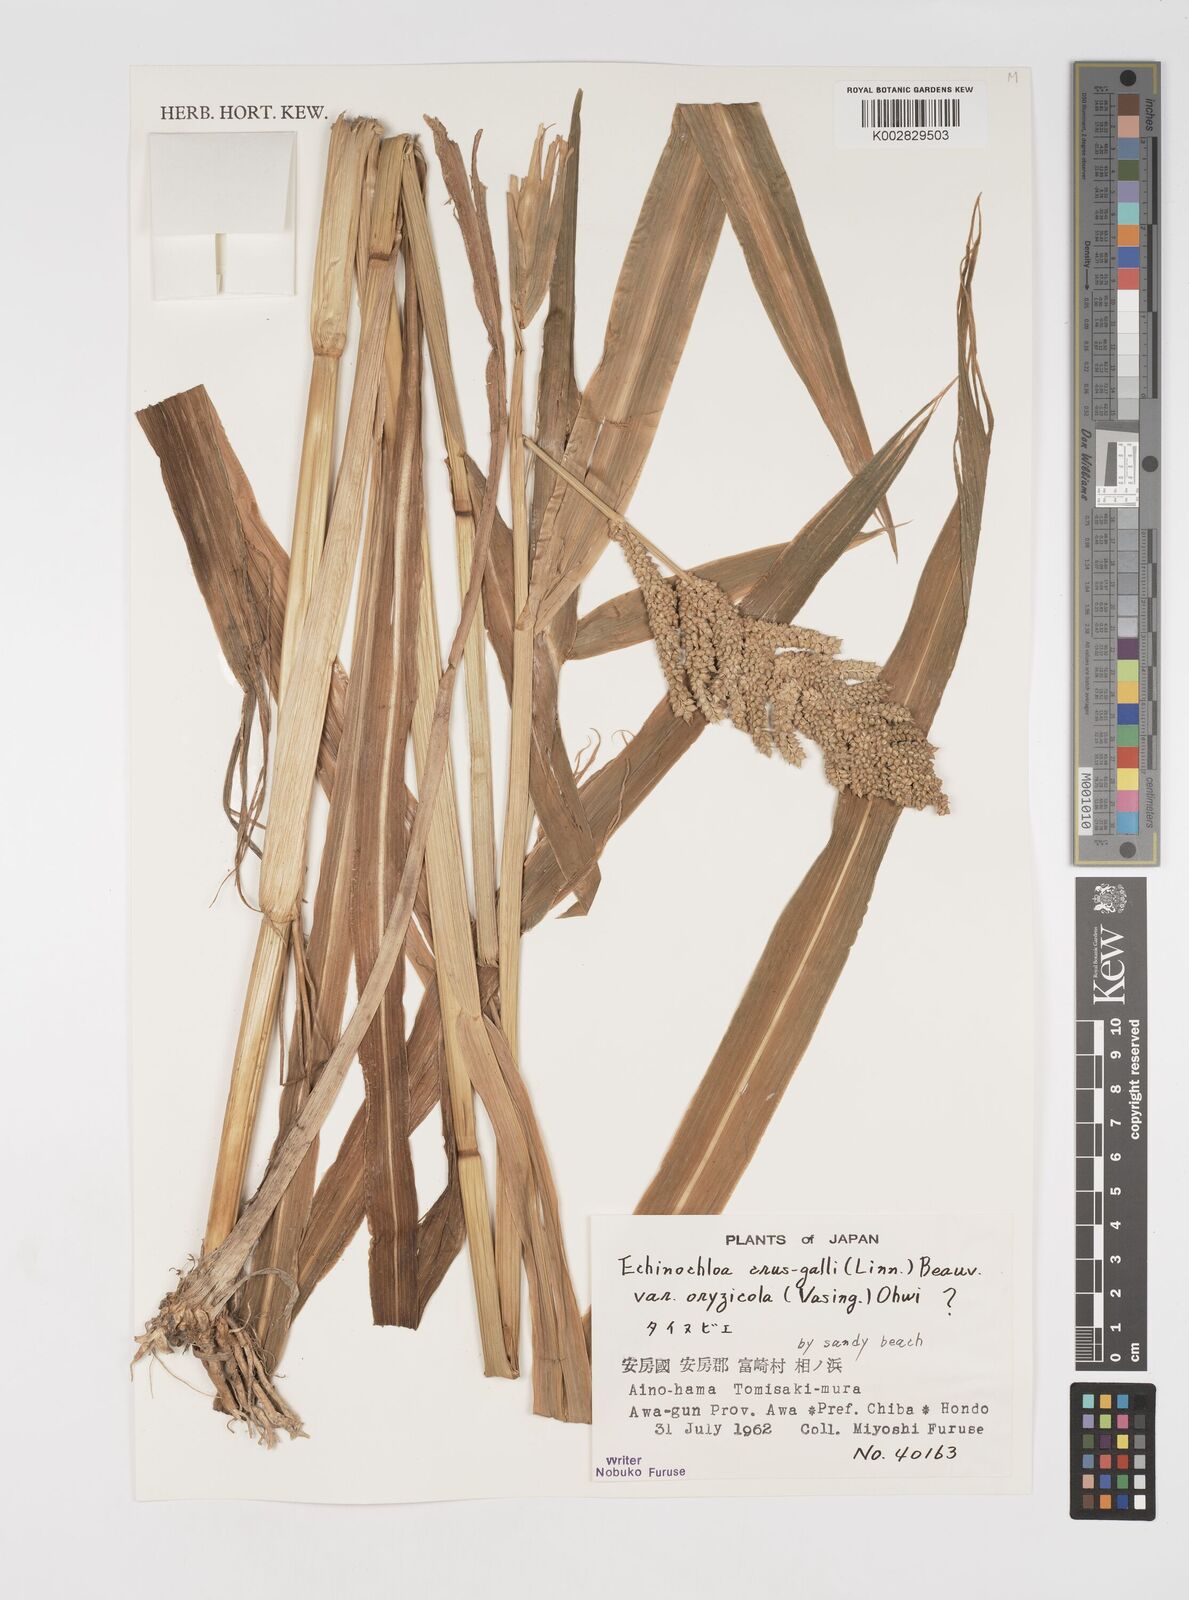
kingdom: Plantae
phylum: Tracheophyta
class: Liliopsida
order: Poales
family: Poaceae
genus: Echinochloa
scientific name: Echinochloa oryzoides
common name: Early water grass
